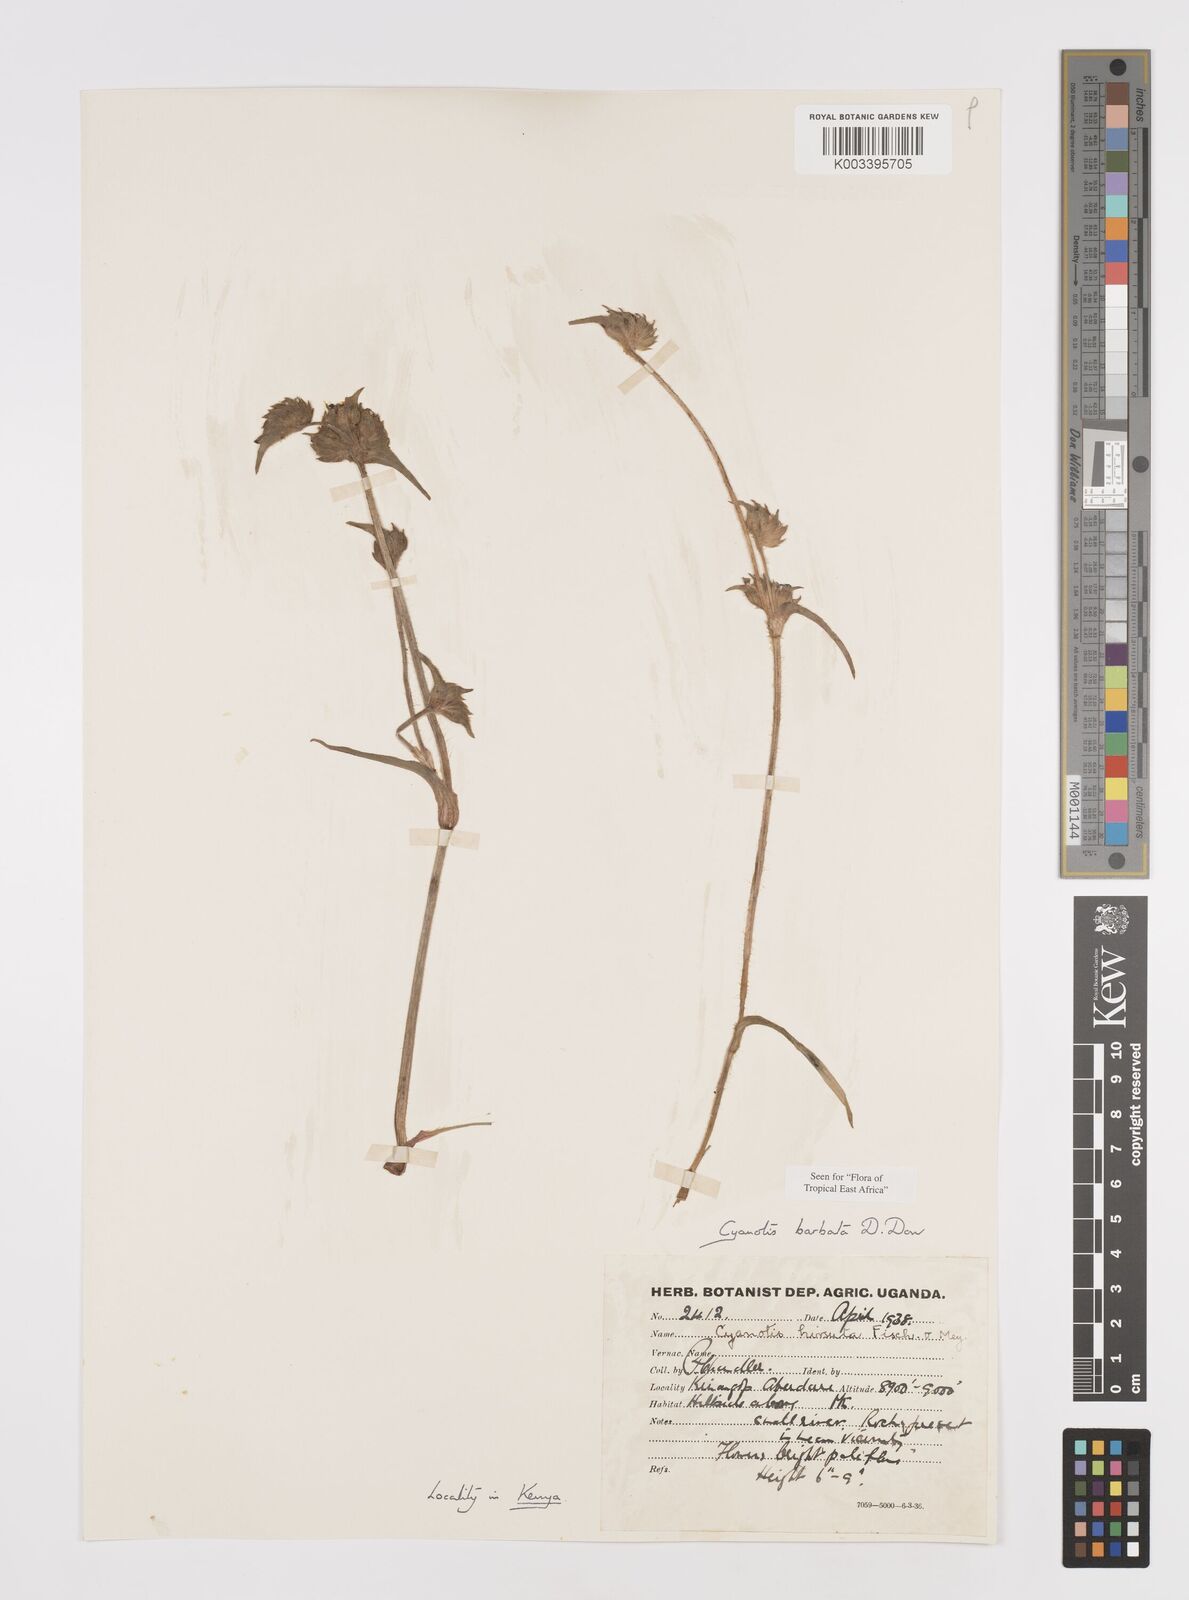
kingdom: Plantae
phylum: Tracheophyta
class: Liliopsida
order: Commelinales
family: Commelinaceae
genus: Cyanotis
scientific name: Cyanotis vaga
